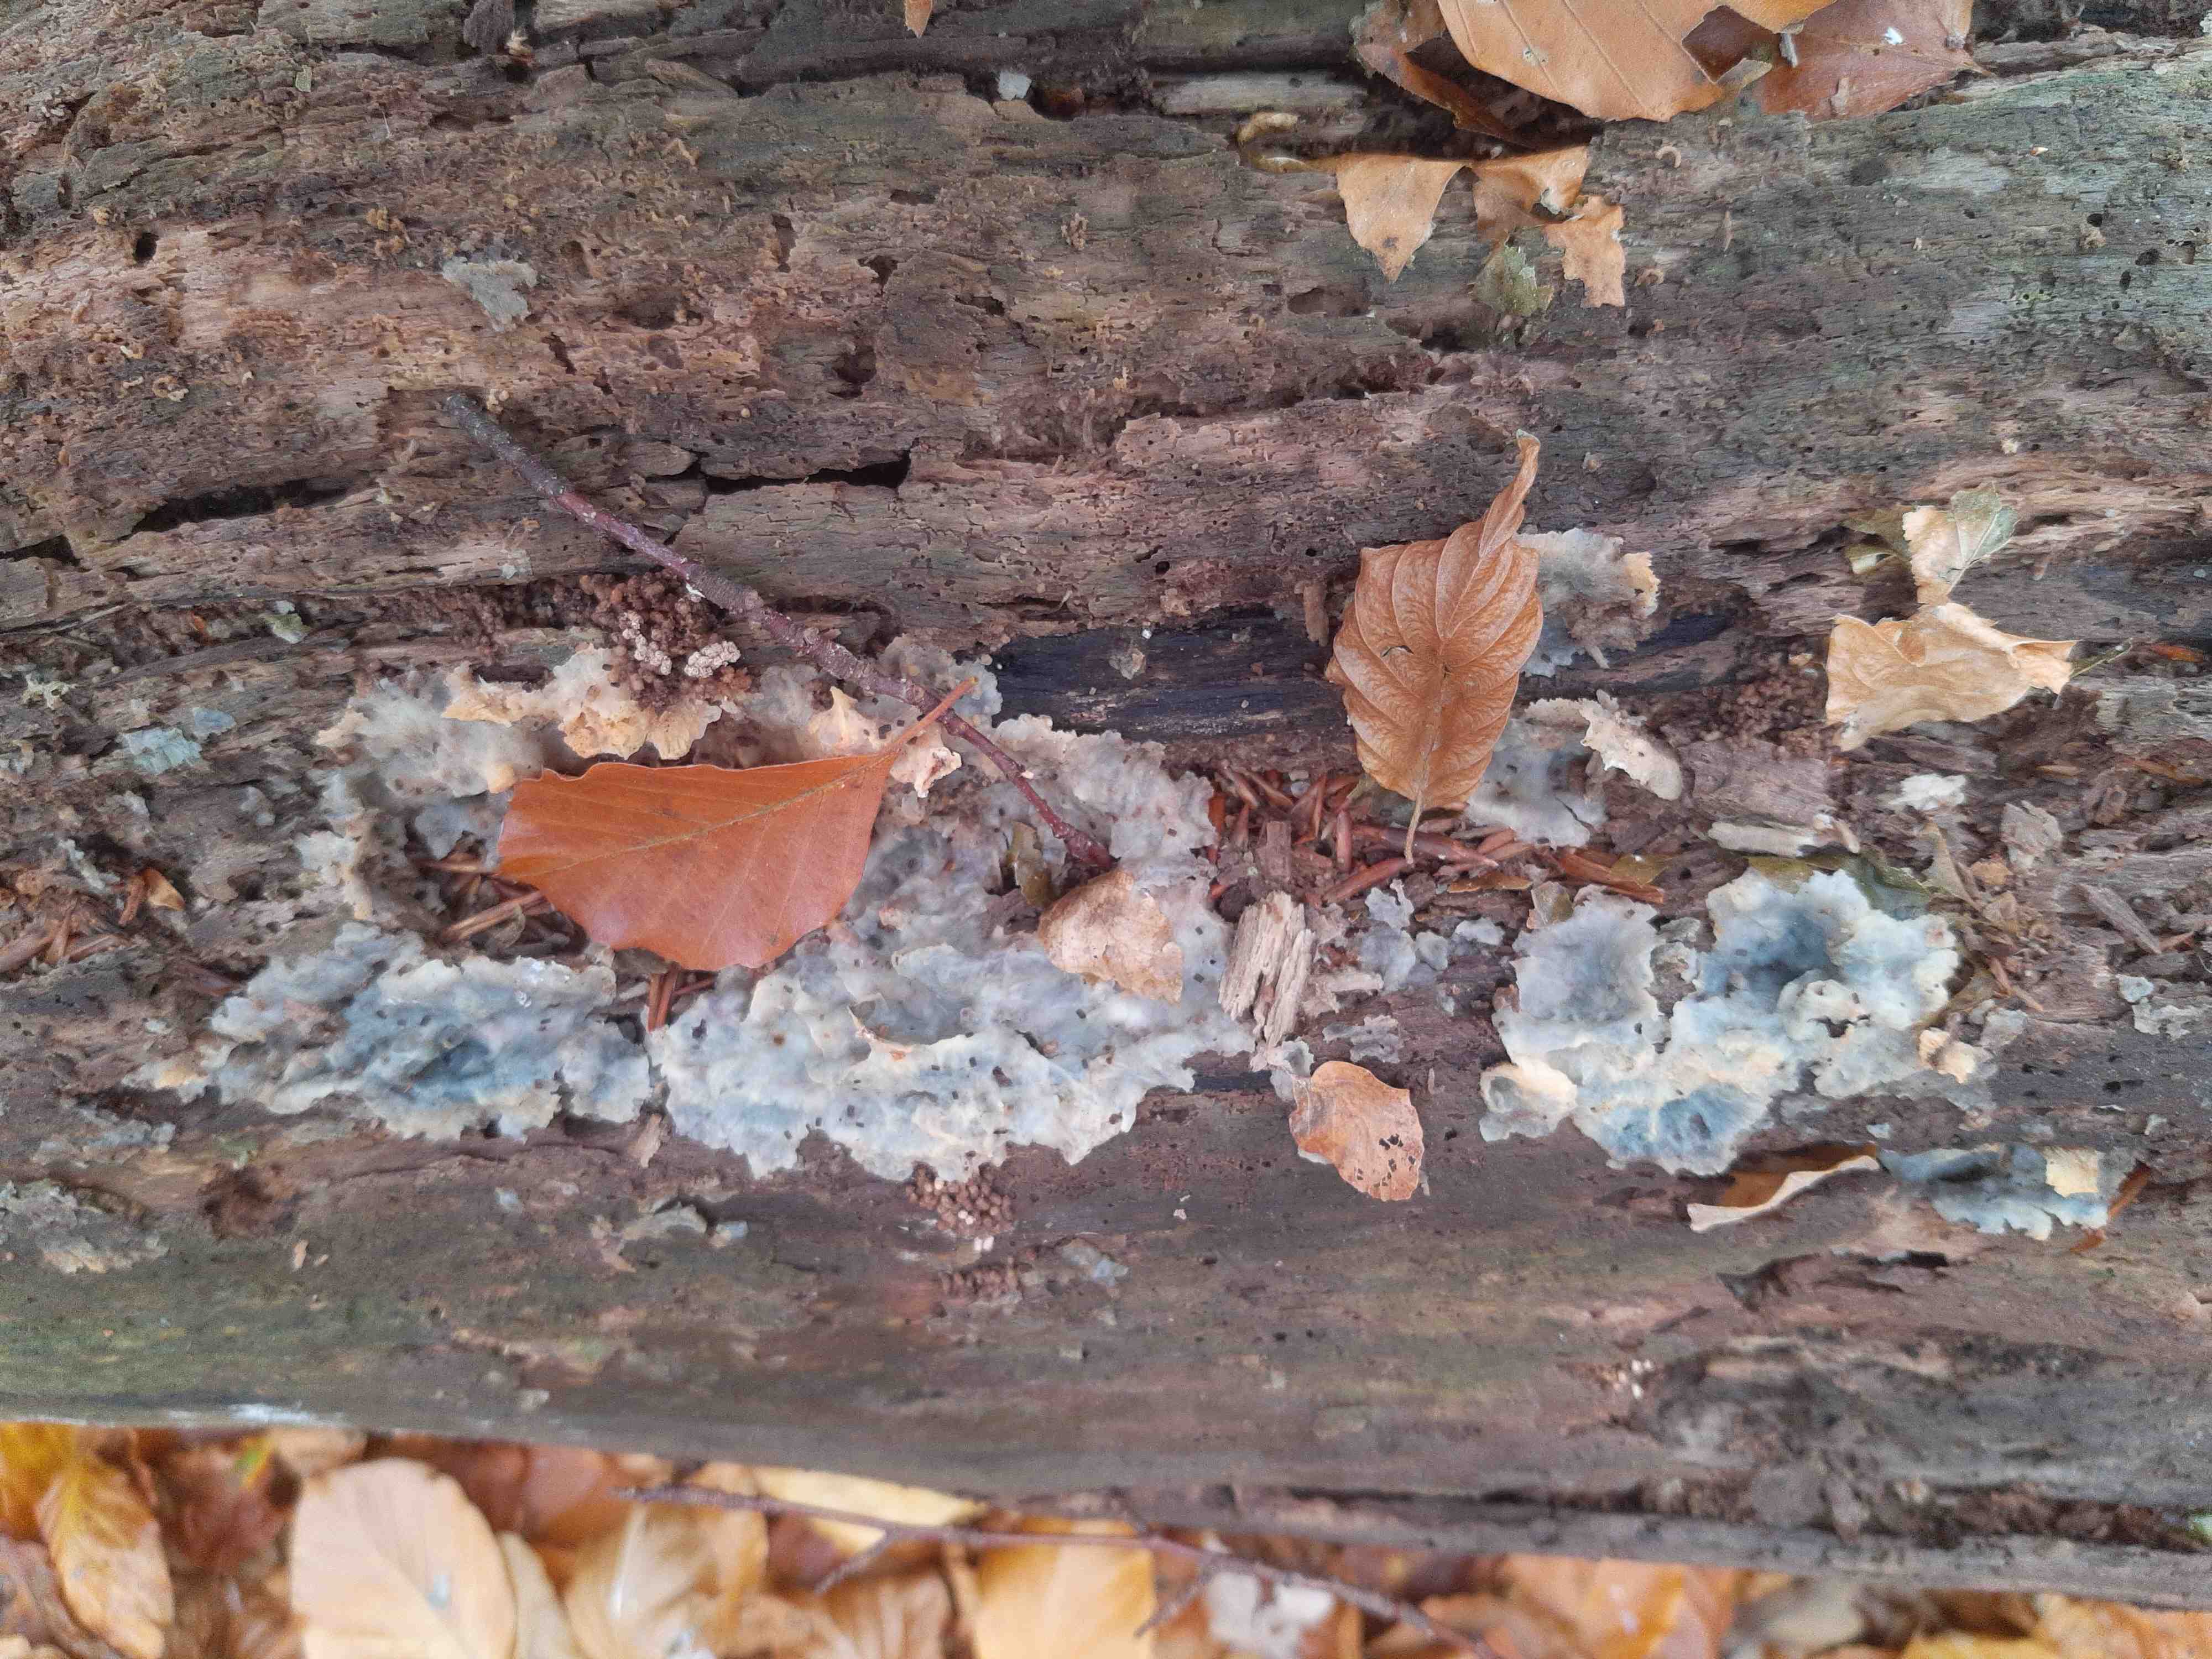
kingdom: Fungi
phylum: Basidiomycota
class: Agaricomycetes
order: Polyporales
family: Meruliaceae
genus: Phlebia
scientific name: Phlebia radiata
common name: stråle-åresvamp
